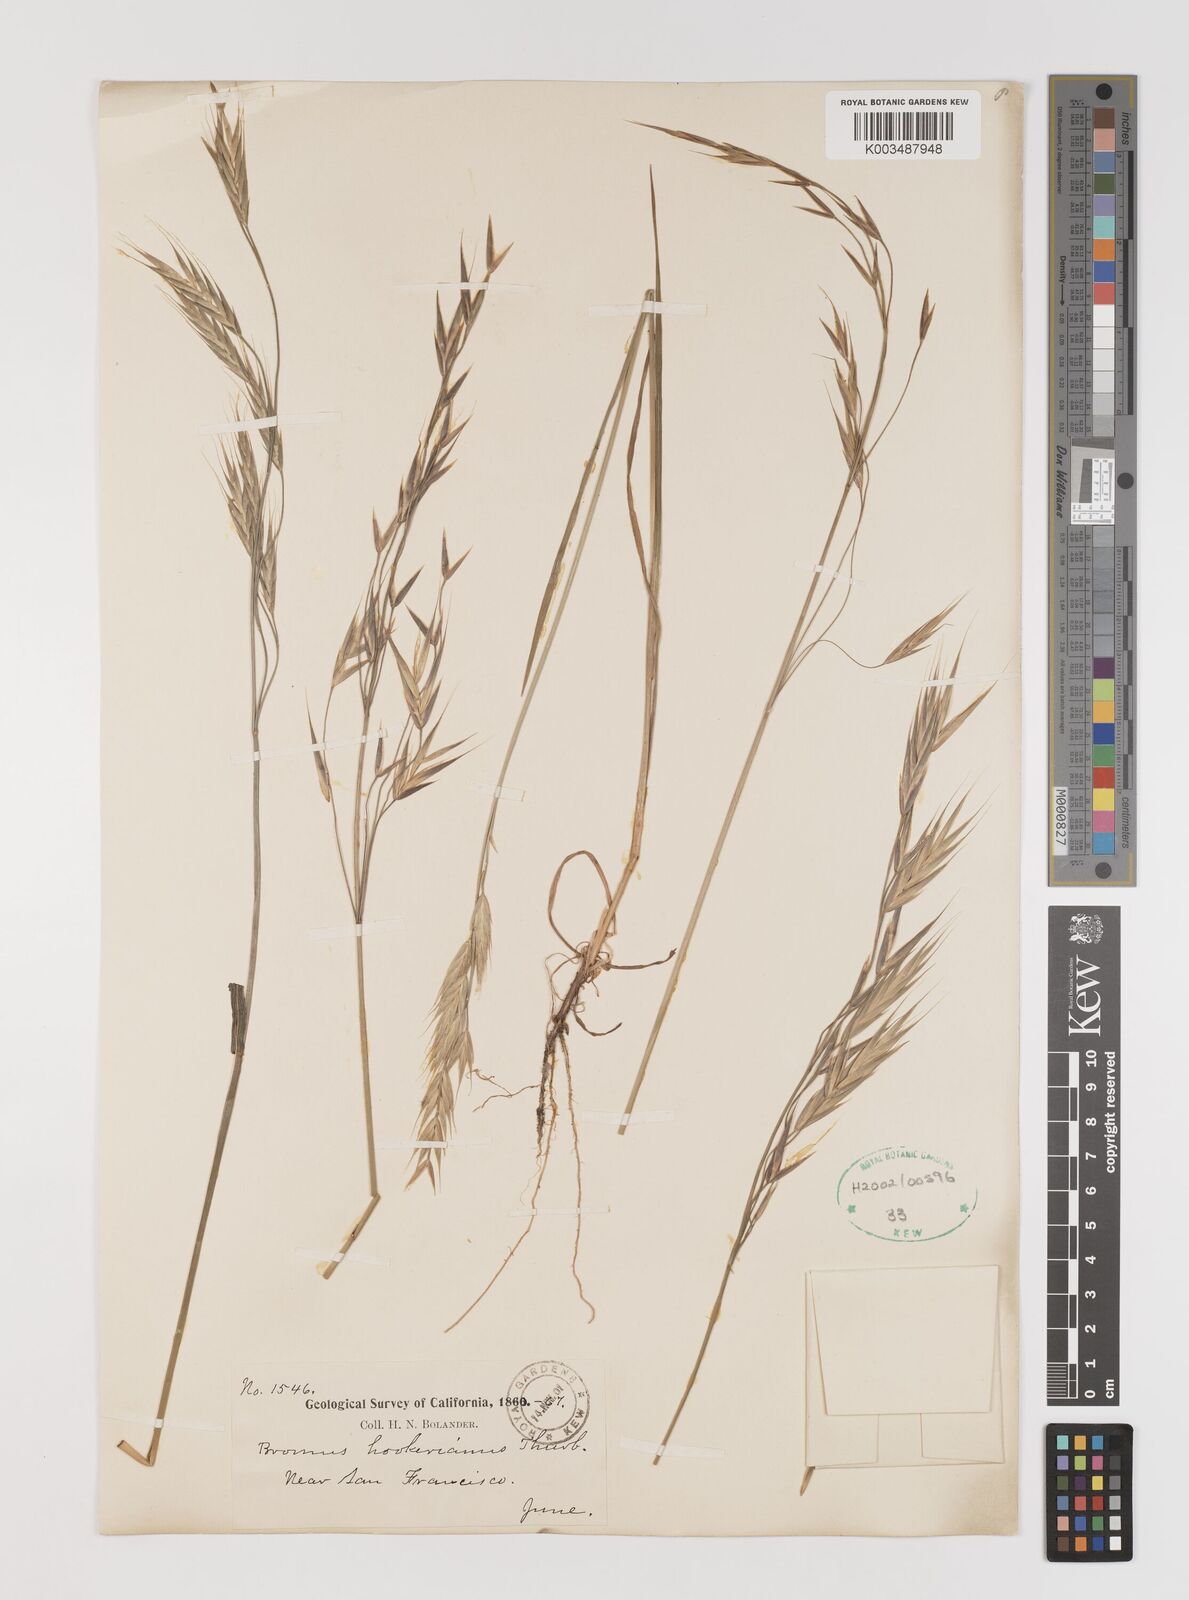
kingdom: Plantae
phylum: Tracheophyta
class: Liliopsida
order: Poales
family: Poaceae
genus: Bromus
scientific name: Bromus carinatus
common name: Mountain brome
